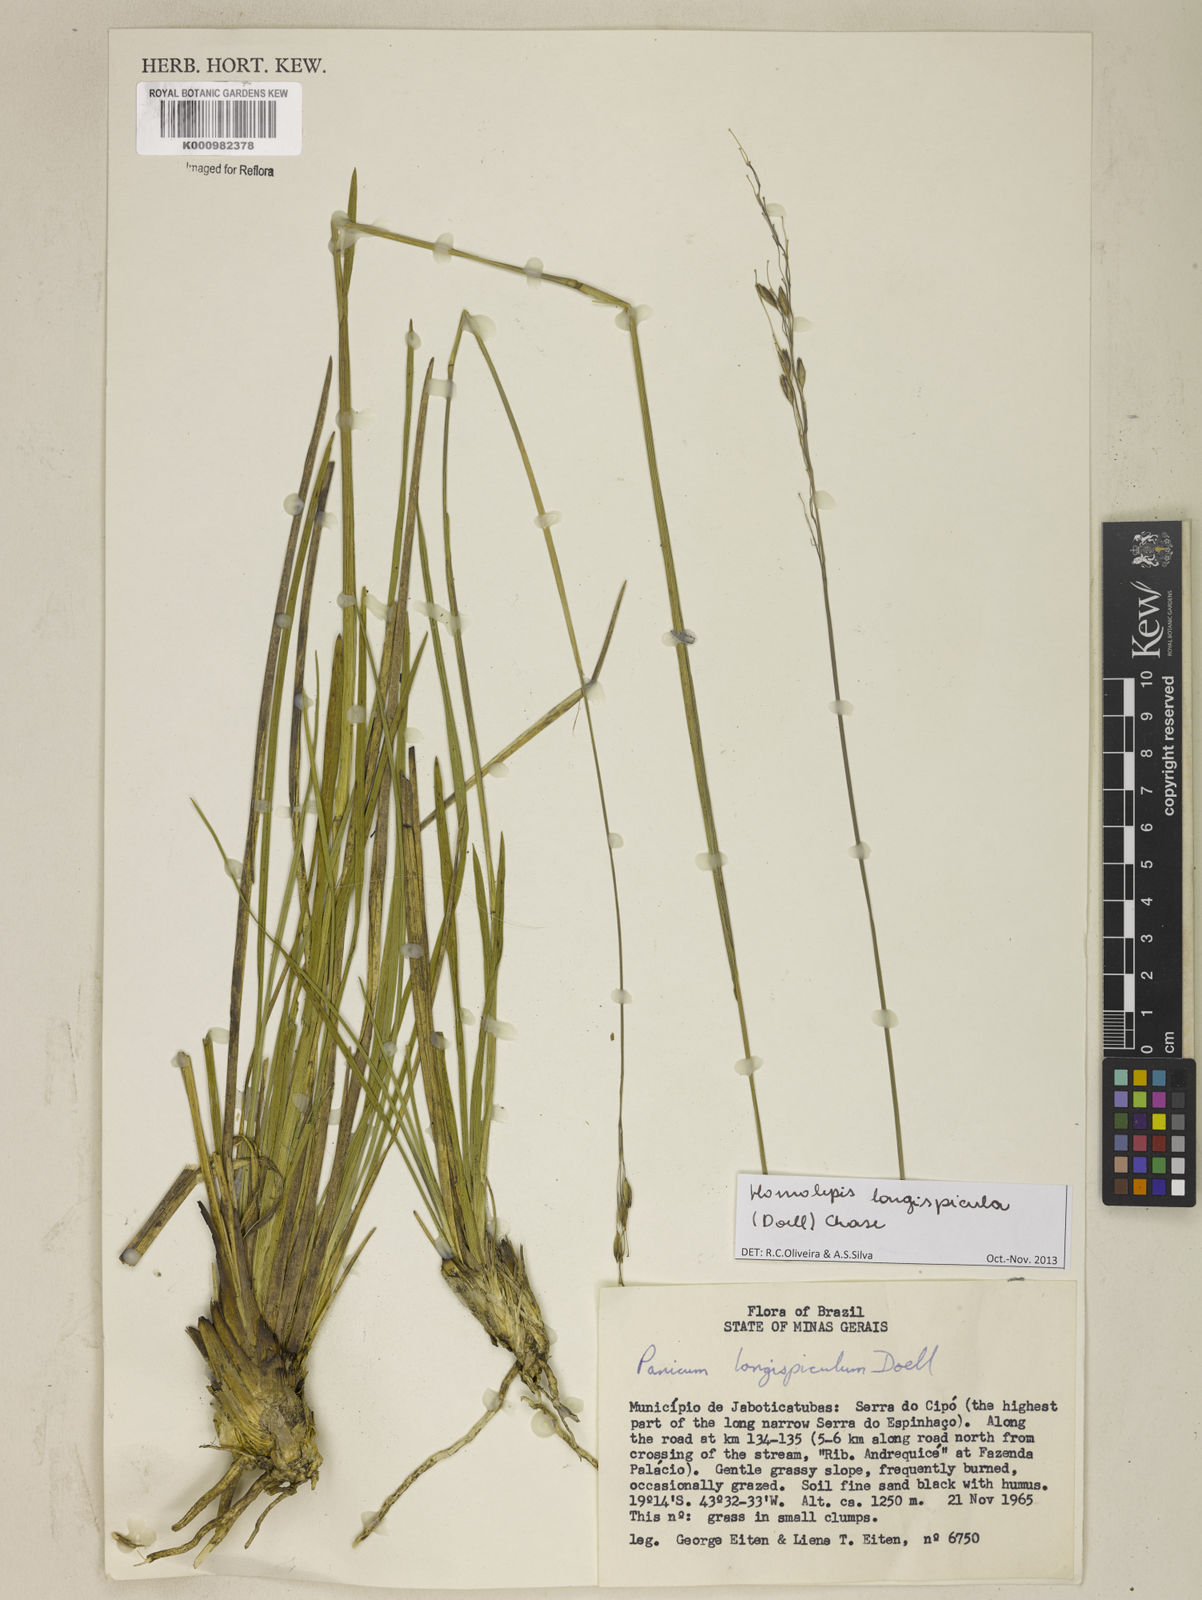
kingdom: Plantae
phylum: Tracheophyta
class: Liliopsida
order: Poales
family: Poaceae
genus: Homolepis
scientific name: Homolepis
